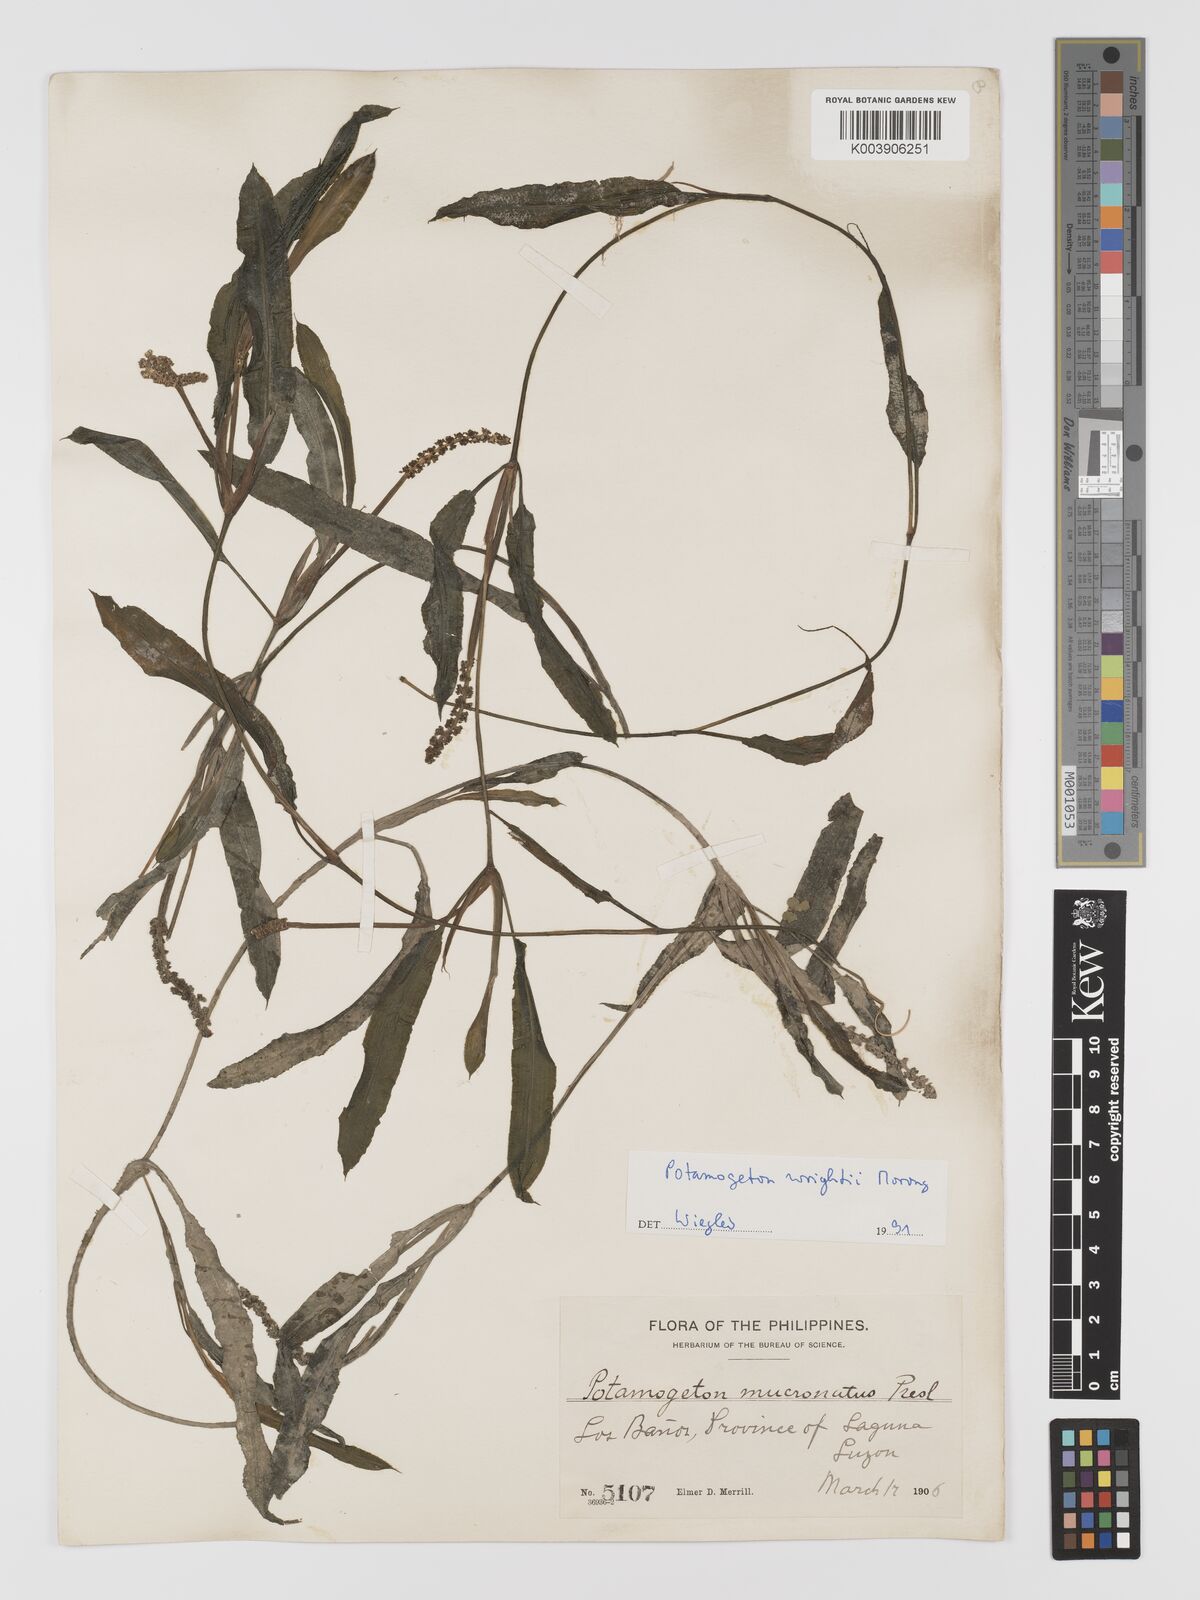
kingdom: Plantae
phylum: Tracheophyta
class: Liliopsida
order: Alismatales
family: Potamogetonaceae
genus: Potamogeton
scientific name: Potamogeton wrightii
